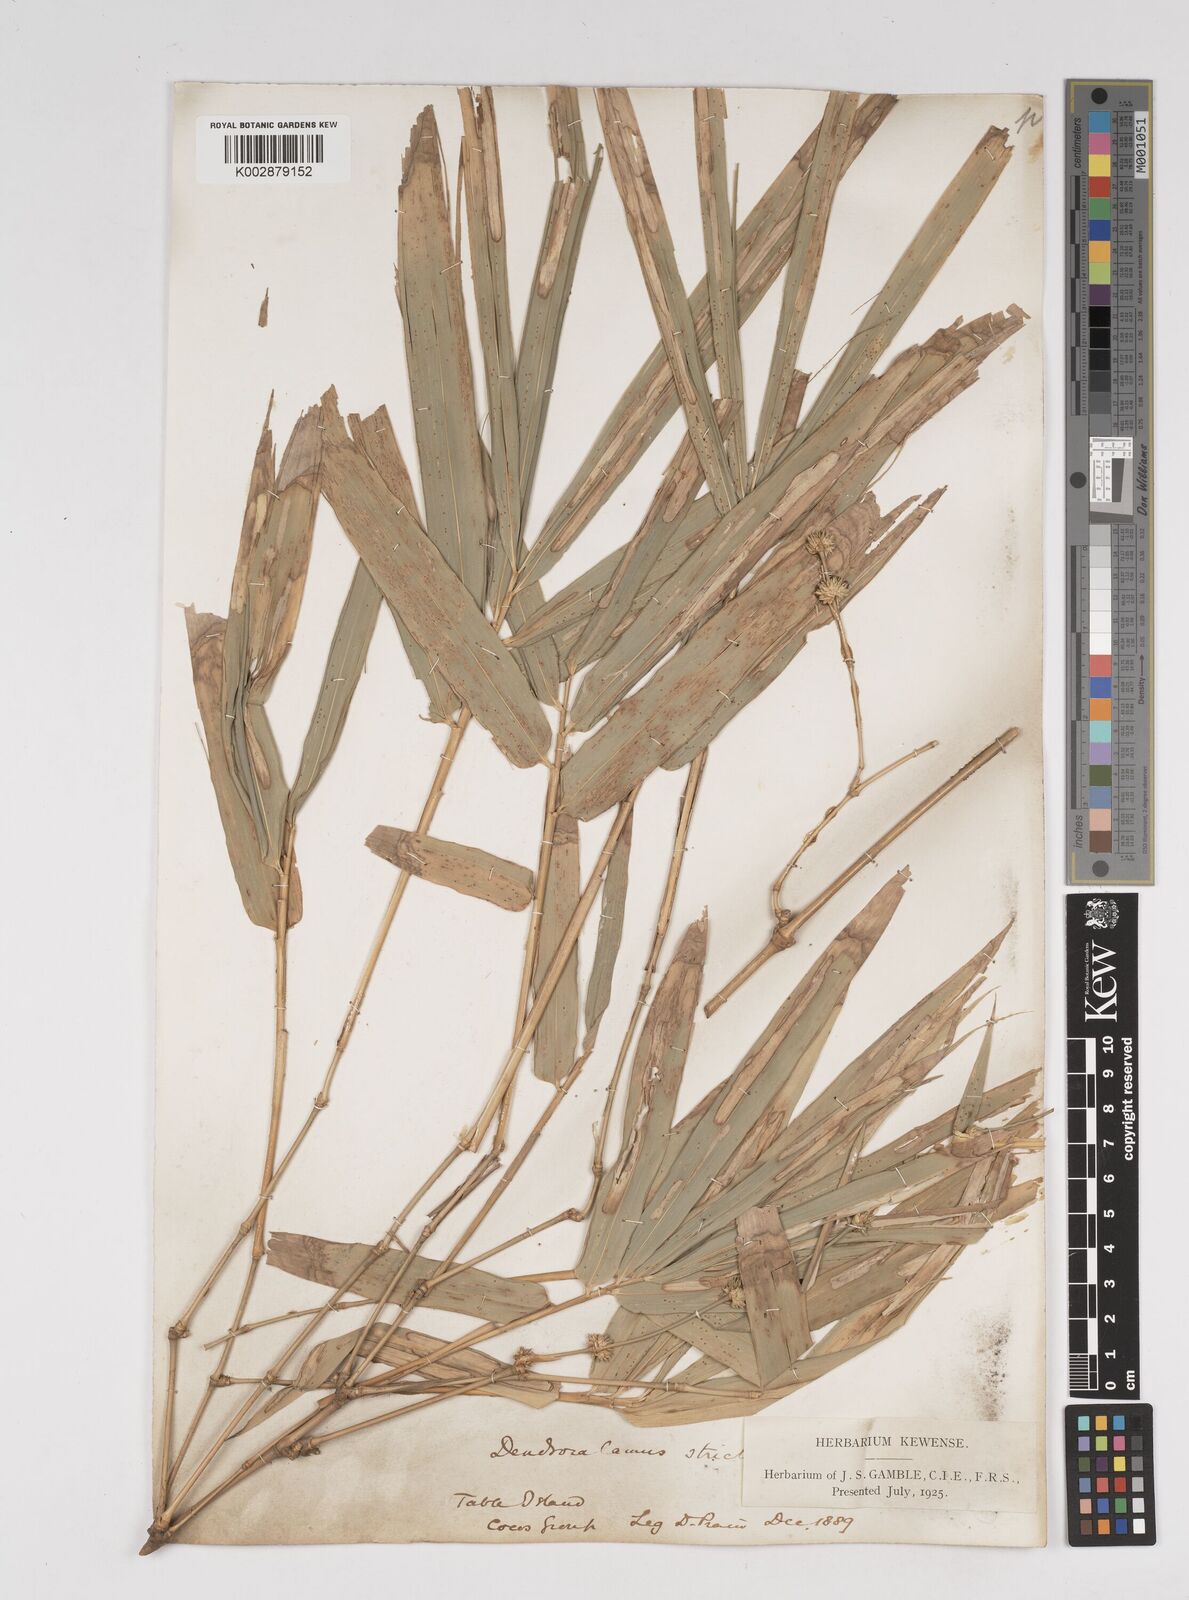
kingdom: Plantae
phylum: Tracheophyta
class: Liliopsida
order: Poales
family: Poaceae
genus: Dendrocalamus
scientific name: Dendrocalamus strictus
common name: Male bamboo
